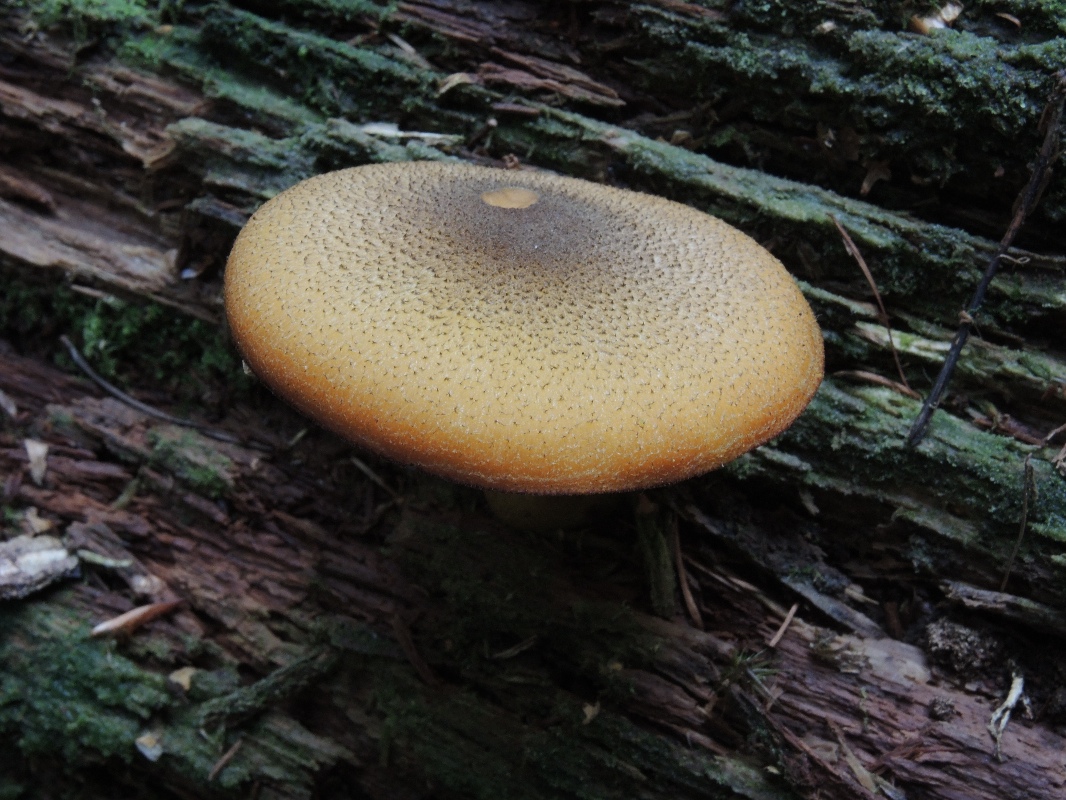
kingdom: Fungi
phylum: Basidiomycota
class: Agaricomycetes
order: Agaricales
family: Tricholomataceae
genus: Tricholomopsis
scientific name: Tricholomopsis decora
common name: sortskællet væbnerhat
